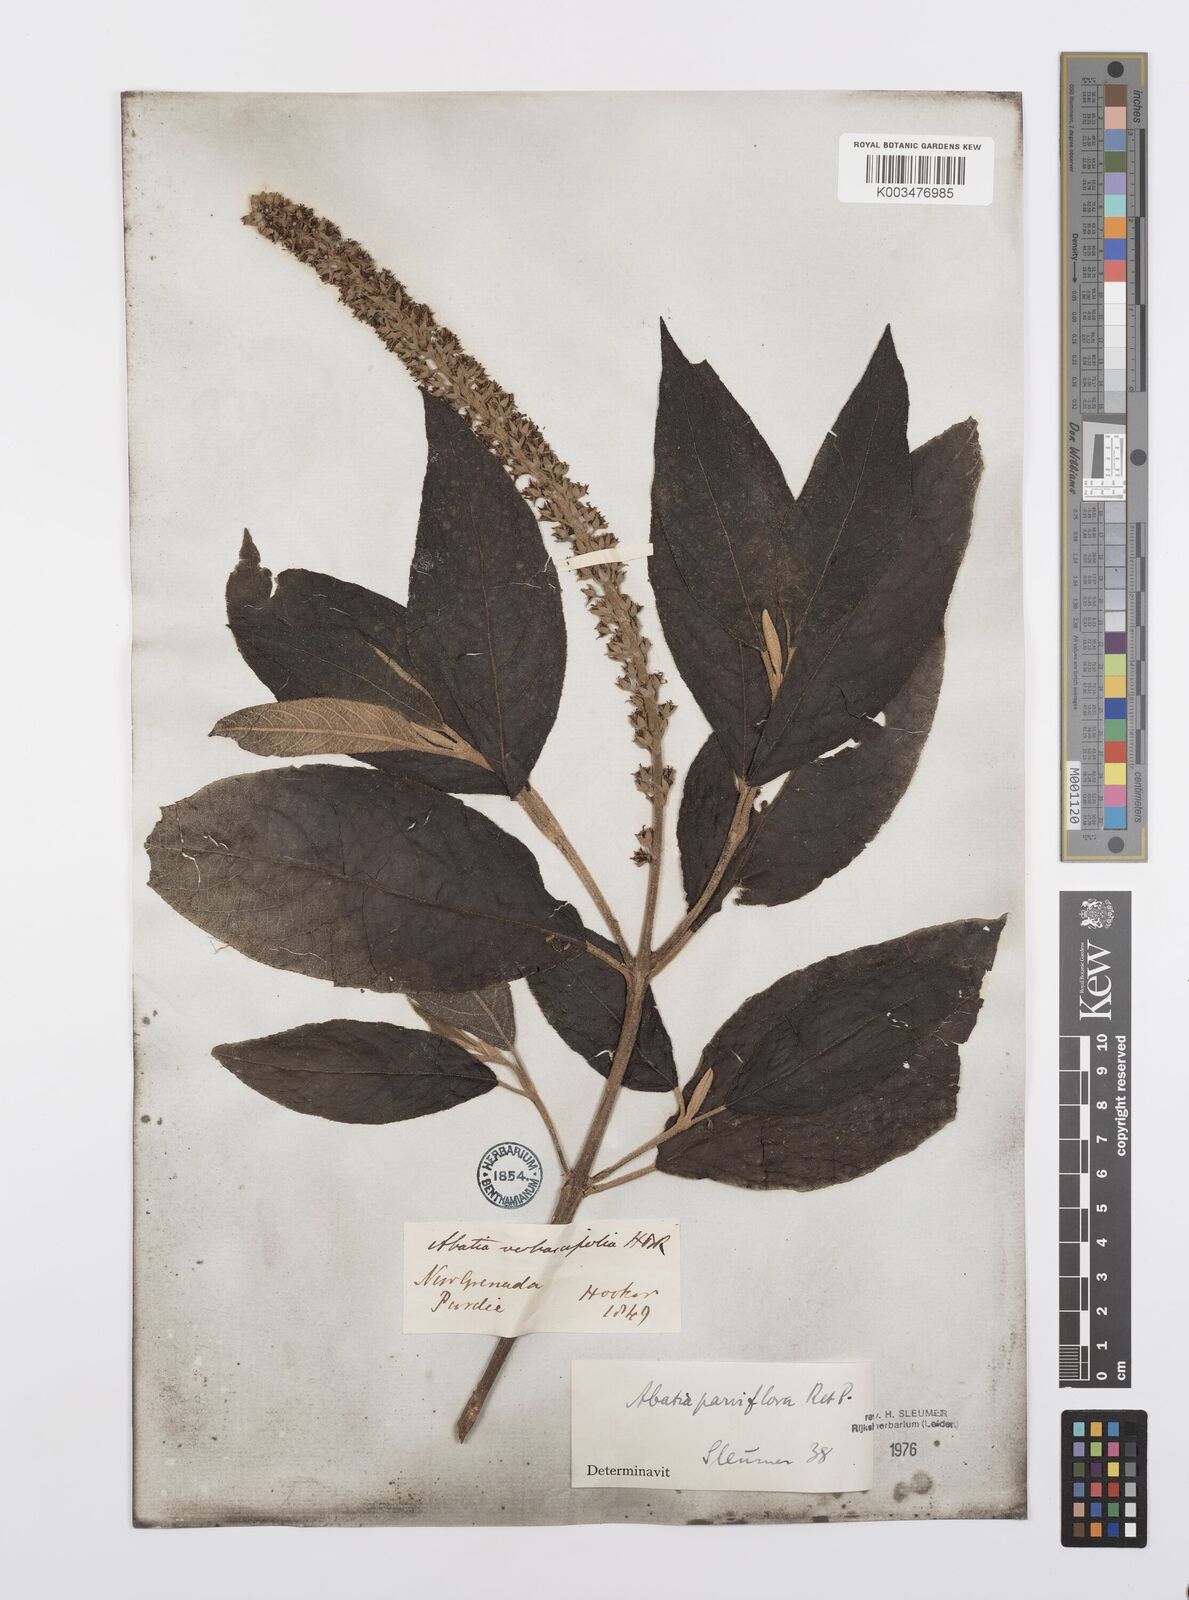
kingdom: Plantae
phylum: Tracheophyta
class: Magnoliopsida
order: Malpighiales
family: Salicaceae
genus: Abatia
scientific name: Abatia parviflora
